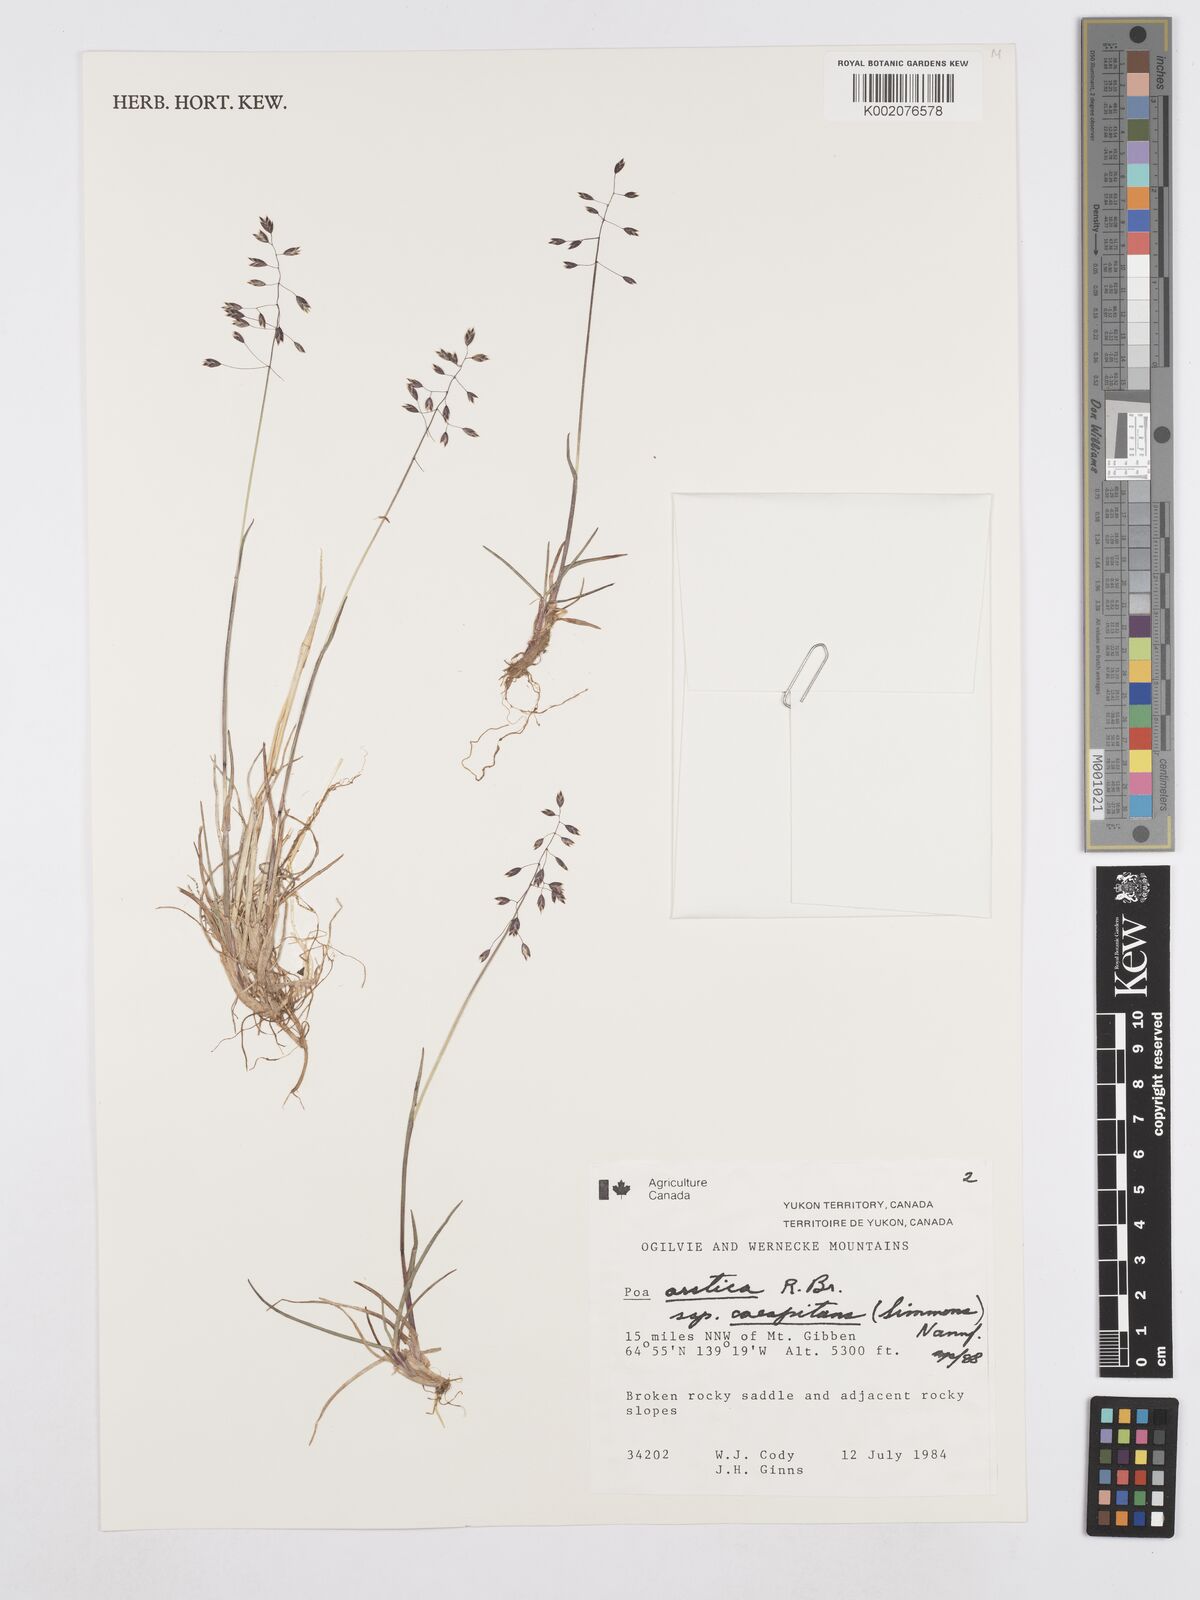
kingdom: Plantae
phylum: Tracheophyta
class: Liliopsida
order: Poales
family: Poaceae
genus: Poa
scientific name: Poa tolmatchewii
